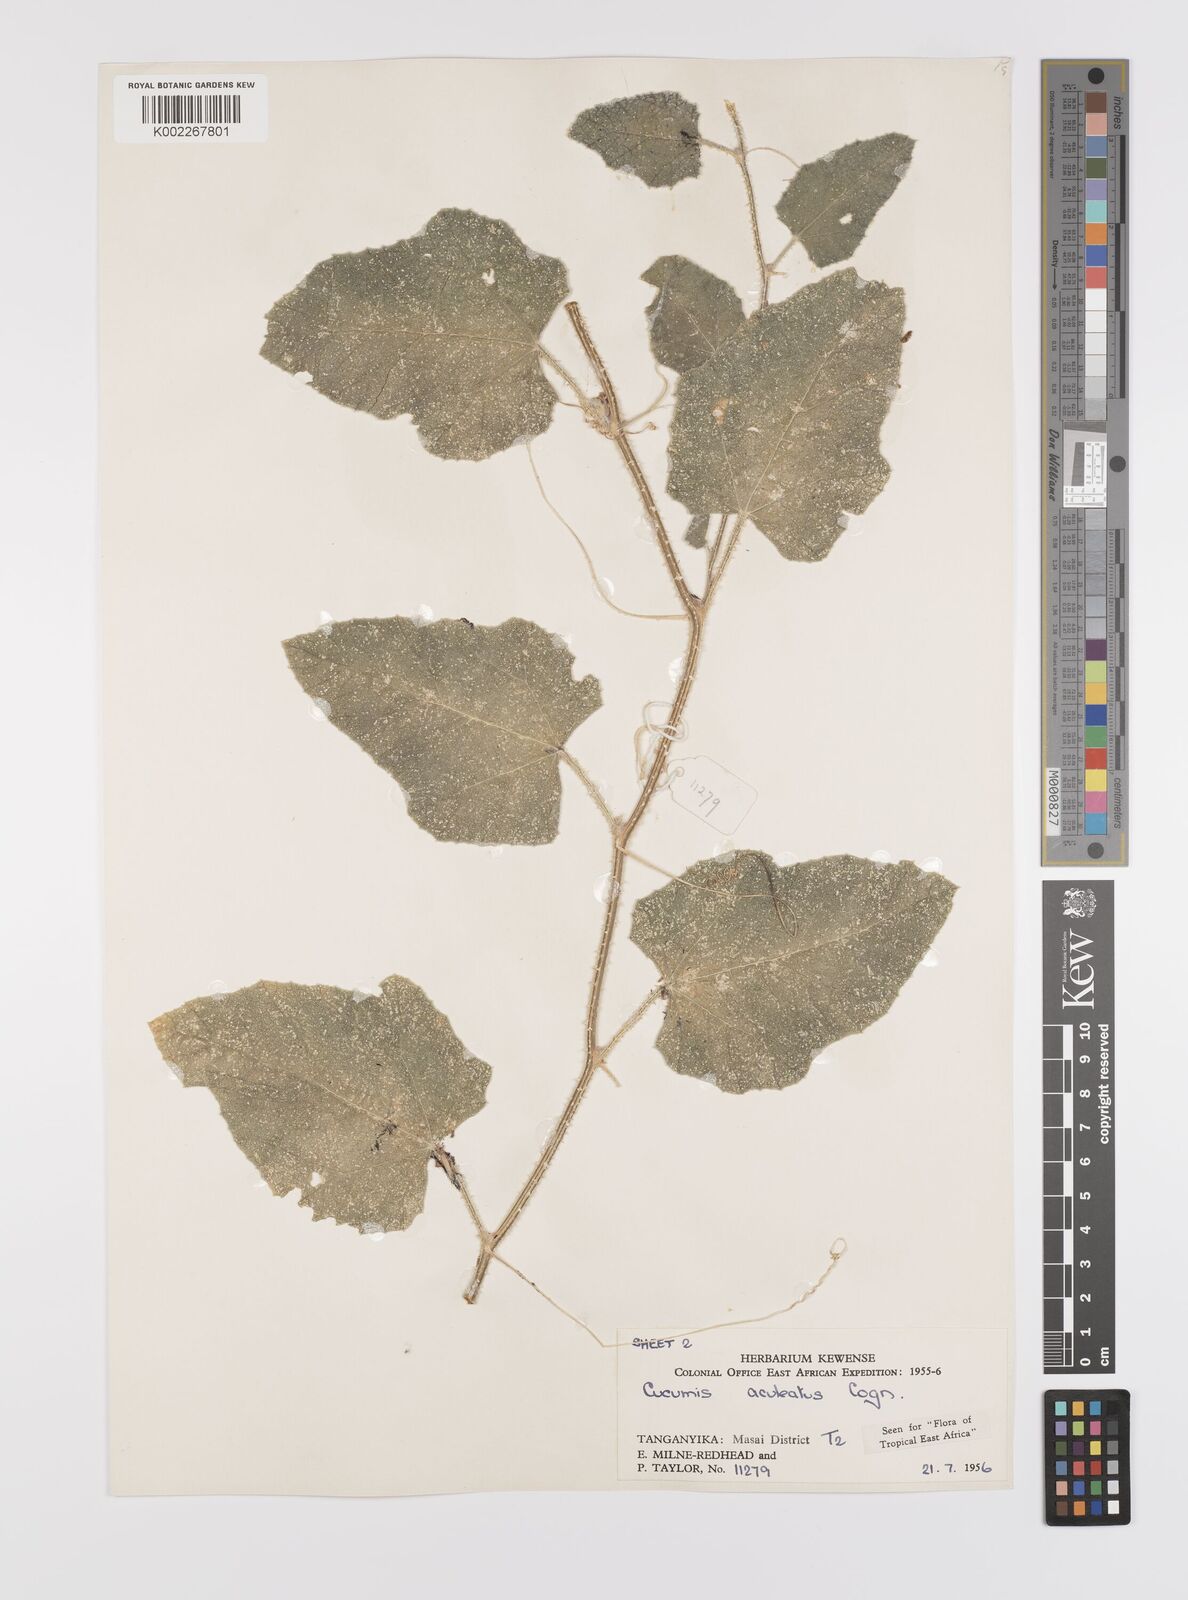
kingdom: Plantae
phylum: Tracheophyta
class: Magnoliopsida
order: Cucurbitales
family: Cucurbitaceae
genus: Cucumis
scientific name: Cucumis aculeatus
